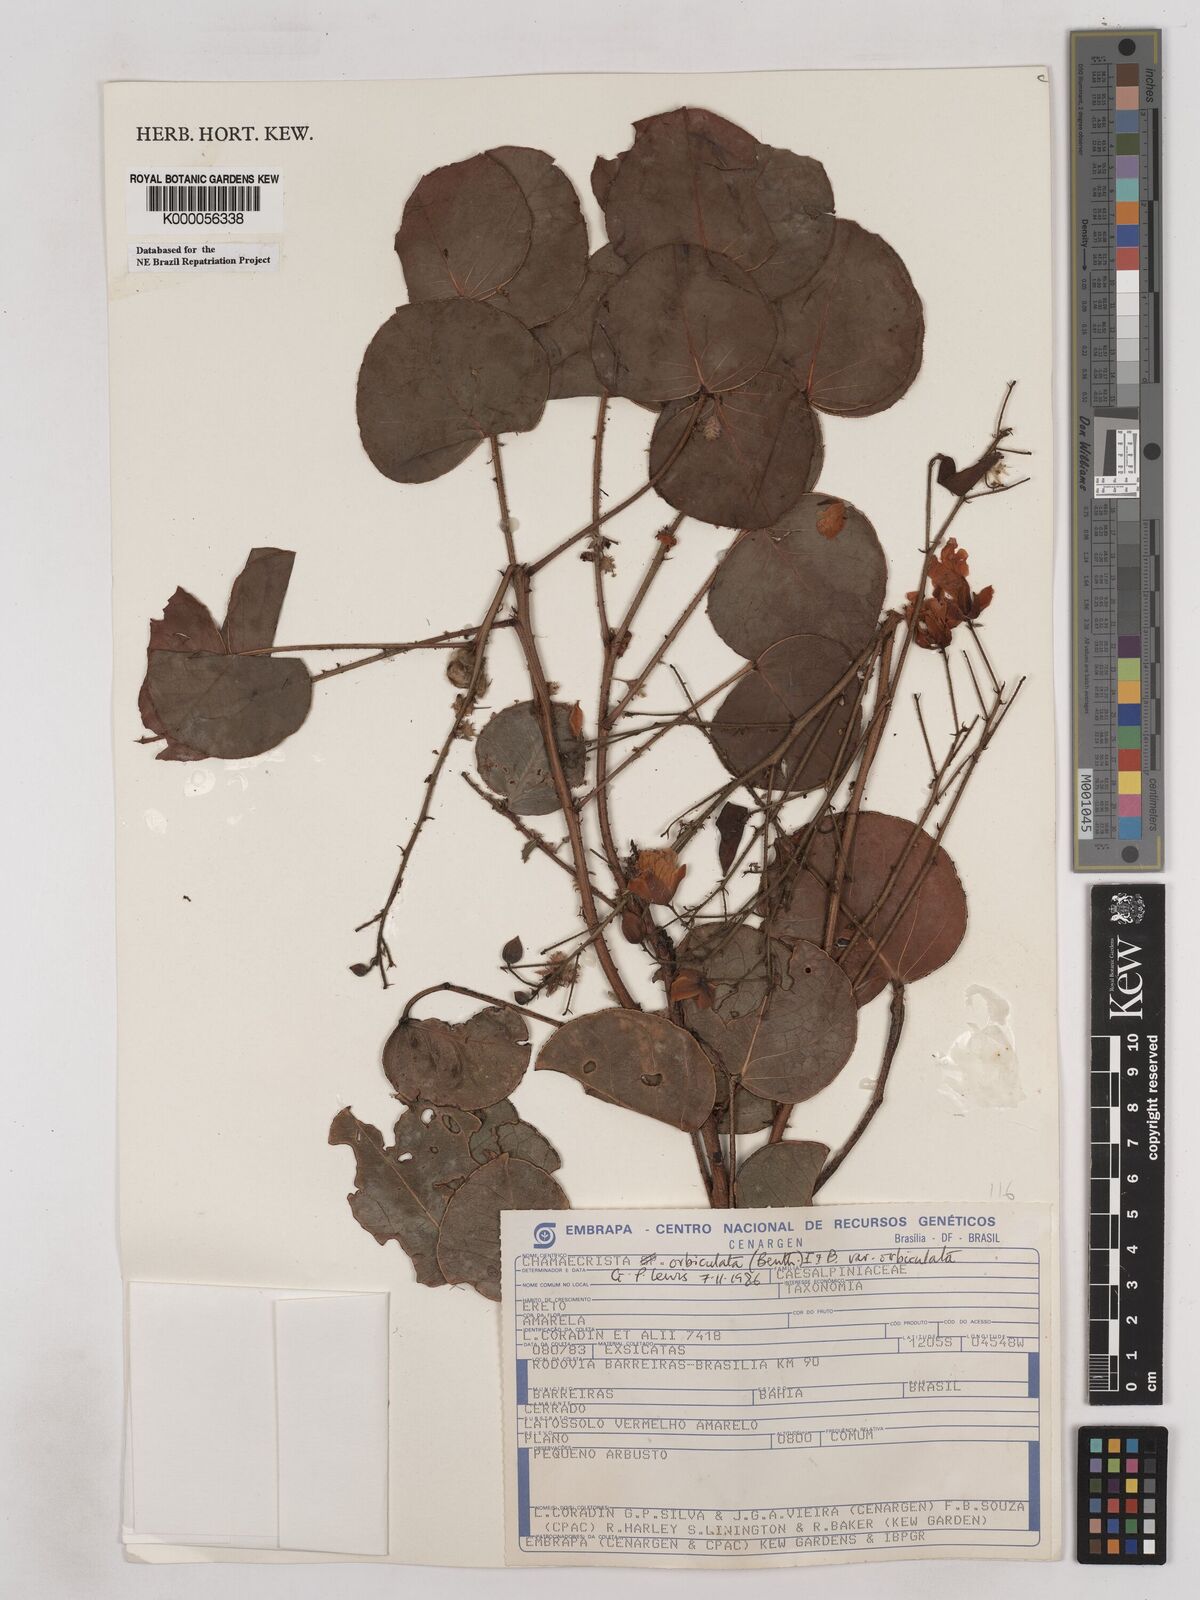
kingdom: Plantae
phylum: Tracheophyta
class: Magnoliopsida
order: Fabales
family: Fabaceae
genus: Chamaecrista
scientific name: Chamaecrista orbiculata
